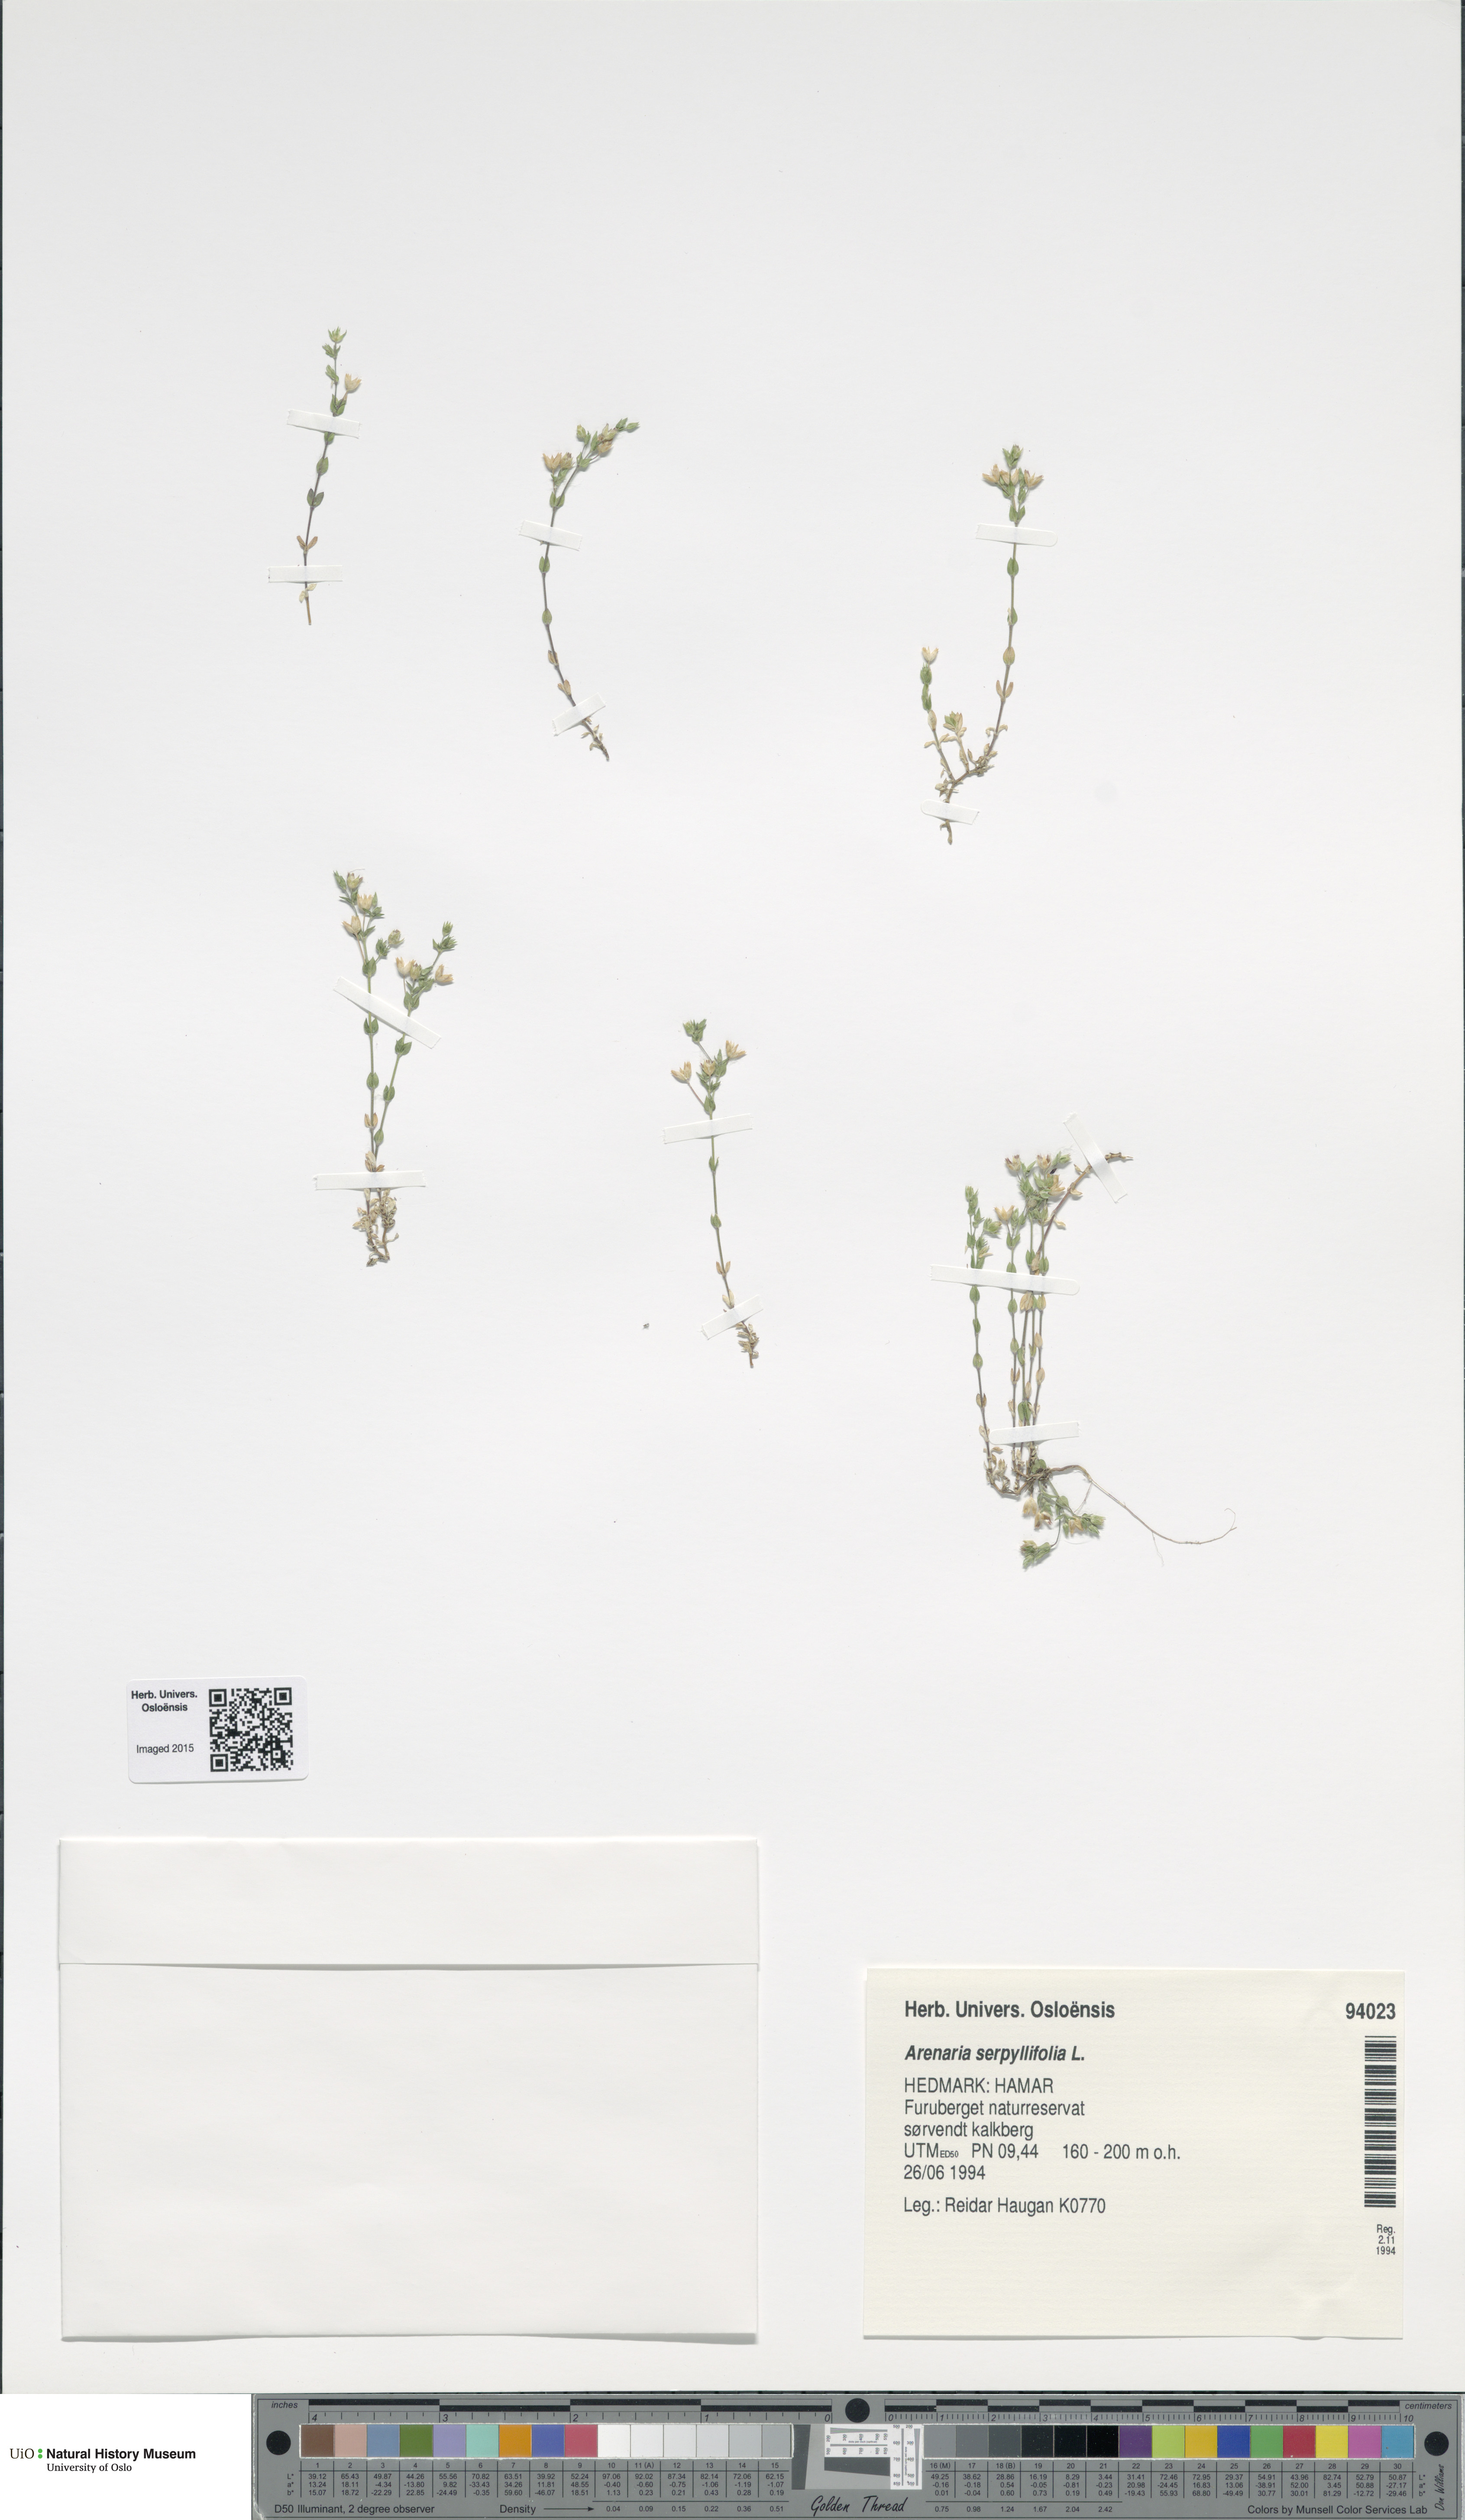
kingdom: Plantae
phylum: Tracheophyta
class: Magnoliopsida
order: Caryophyllales
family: Caryophyllaceae
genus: Arenaria
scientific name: Arenaria serpyllifolia
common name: Thyme-leaved sandwort
